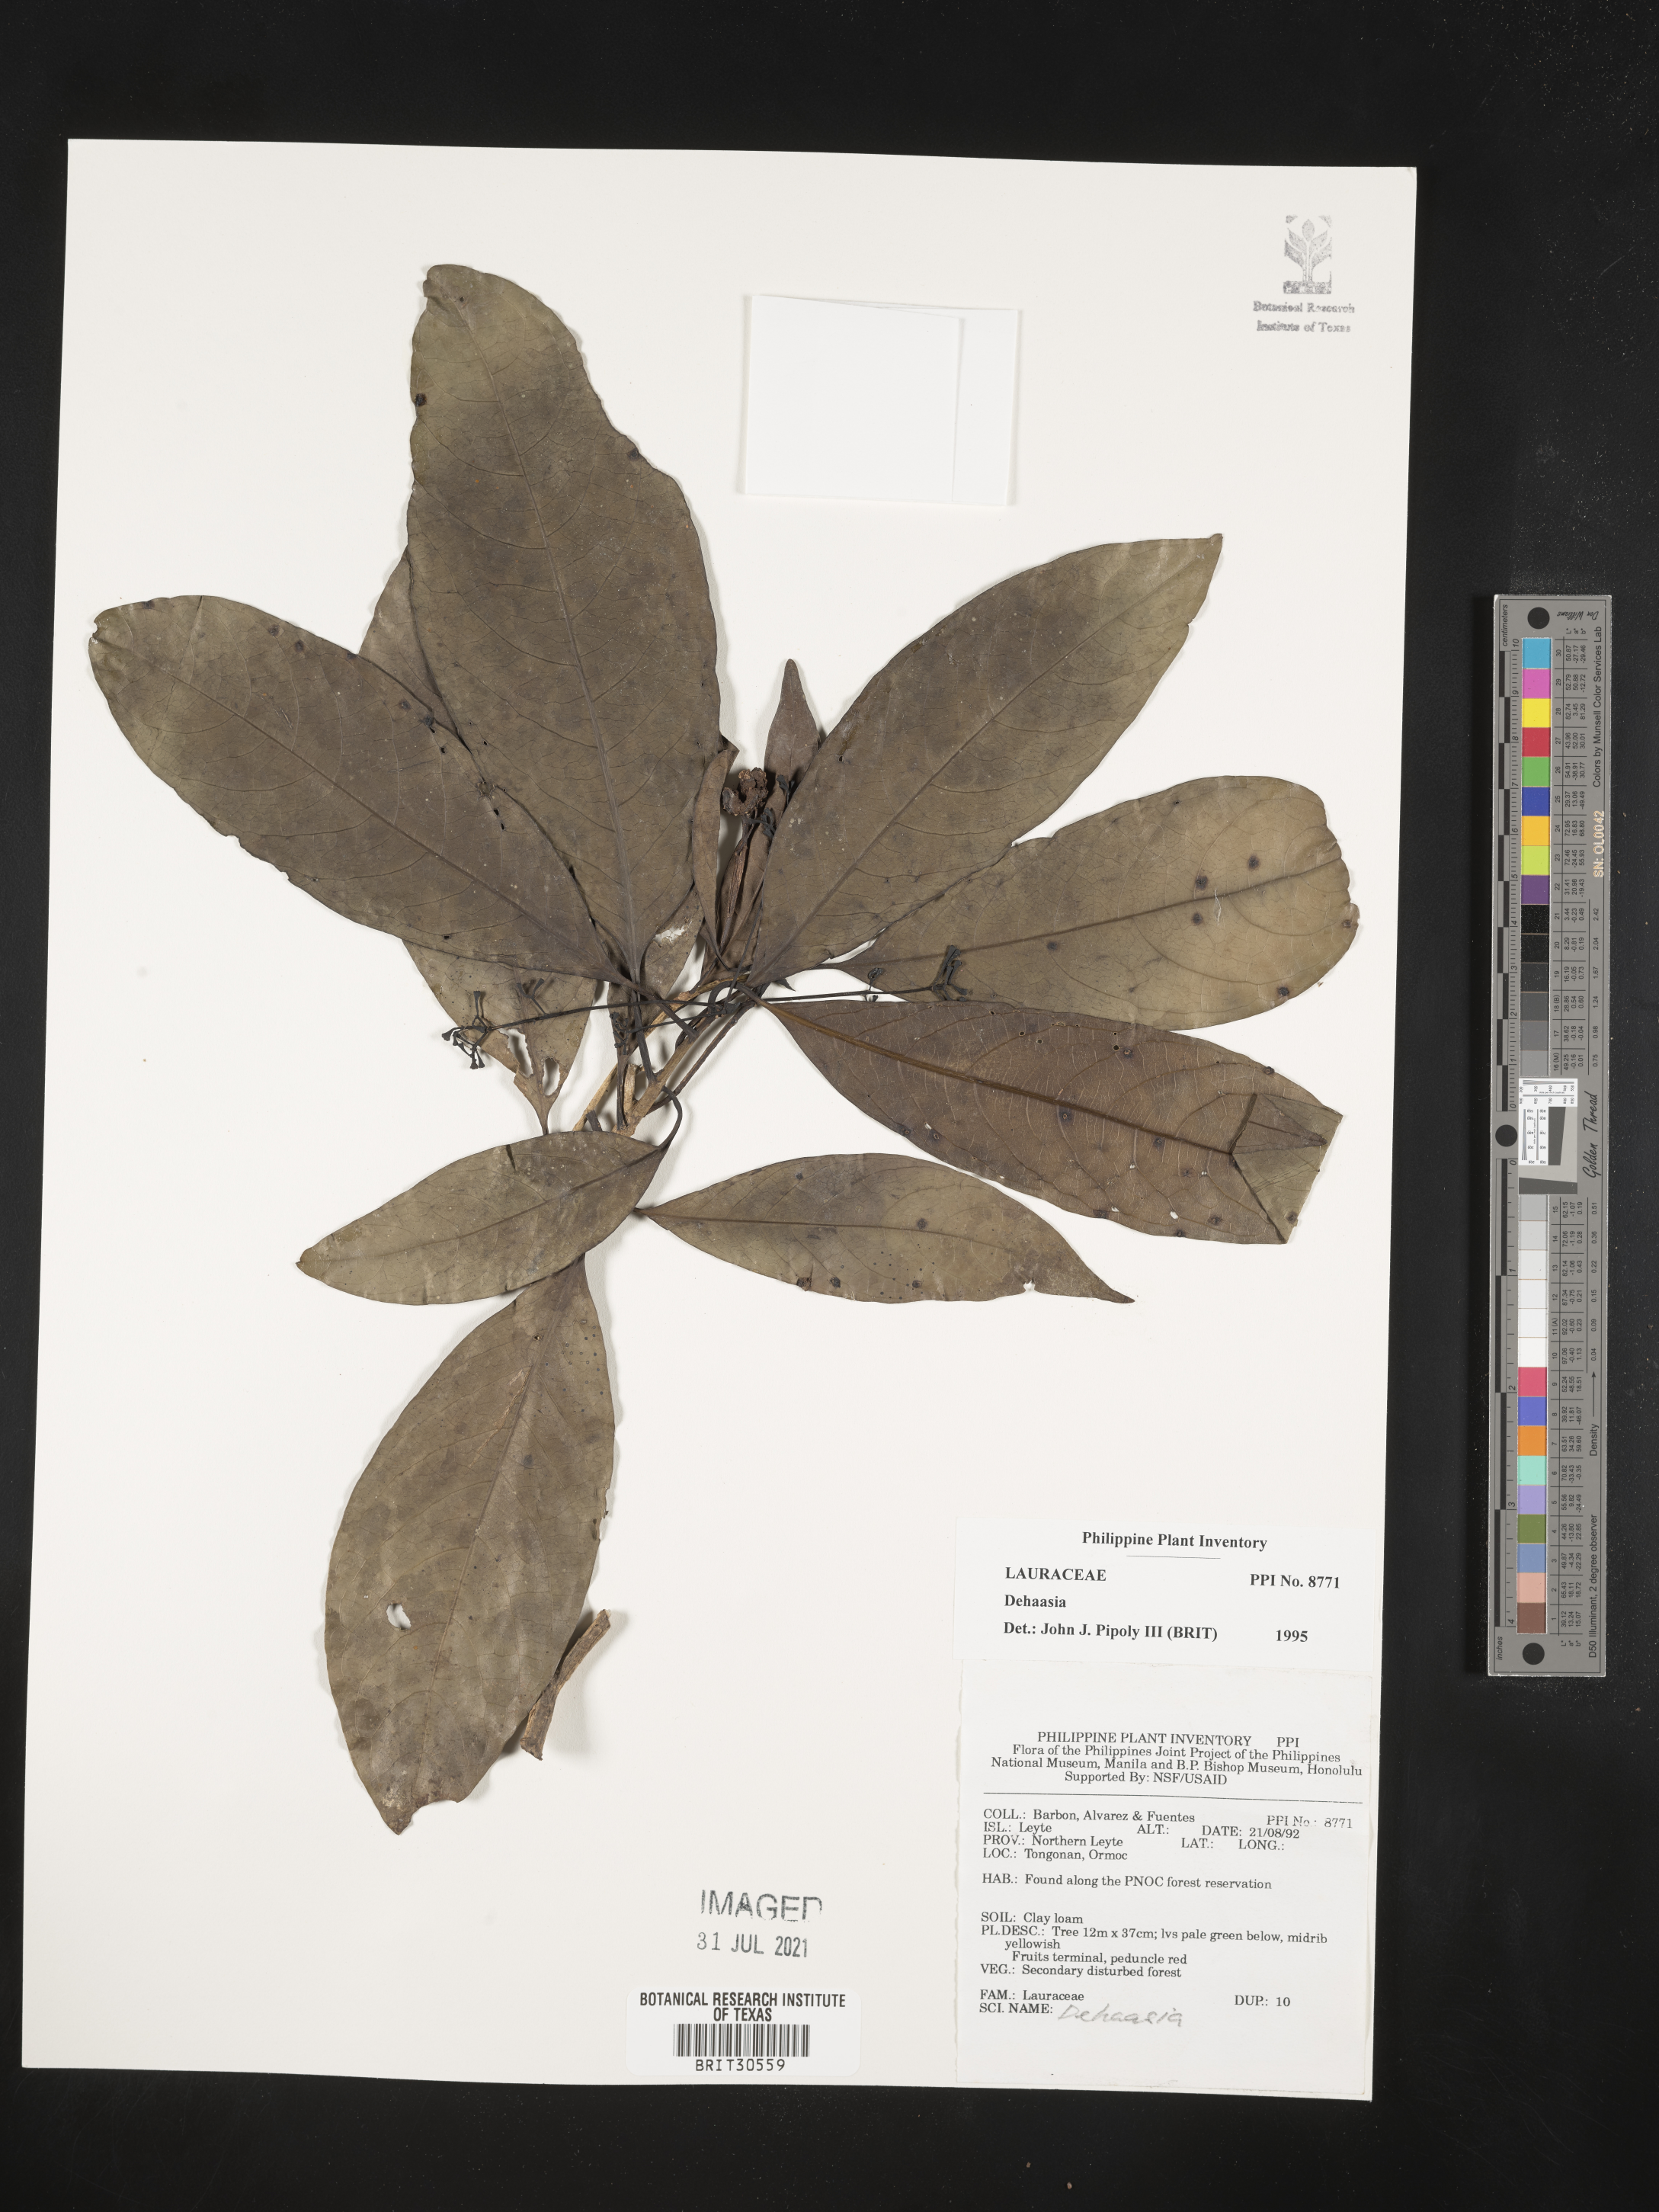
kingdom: Plantae
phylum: Tracheophyta
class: Magnoliopsida
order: Laurales
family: Lauraceae
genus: Dehaasia
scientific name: Dehaasia
